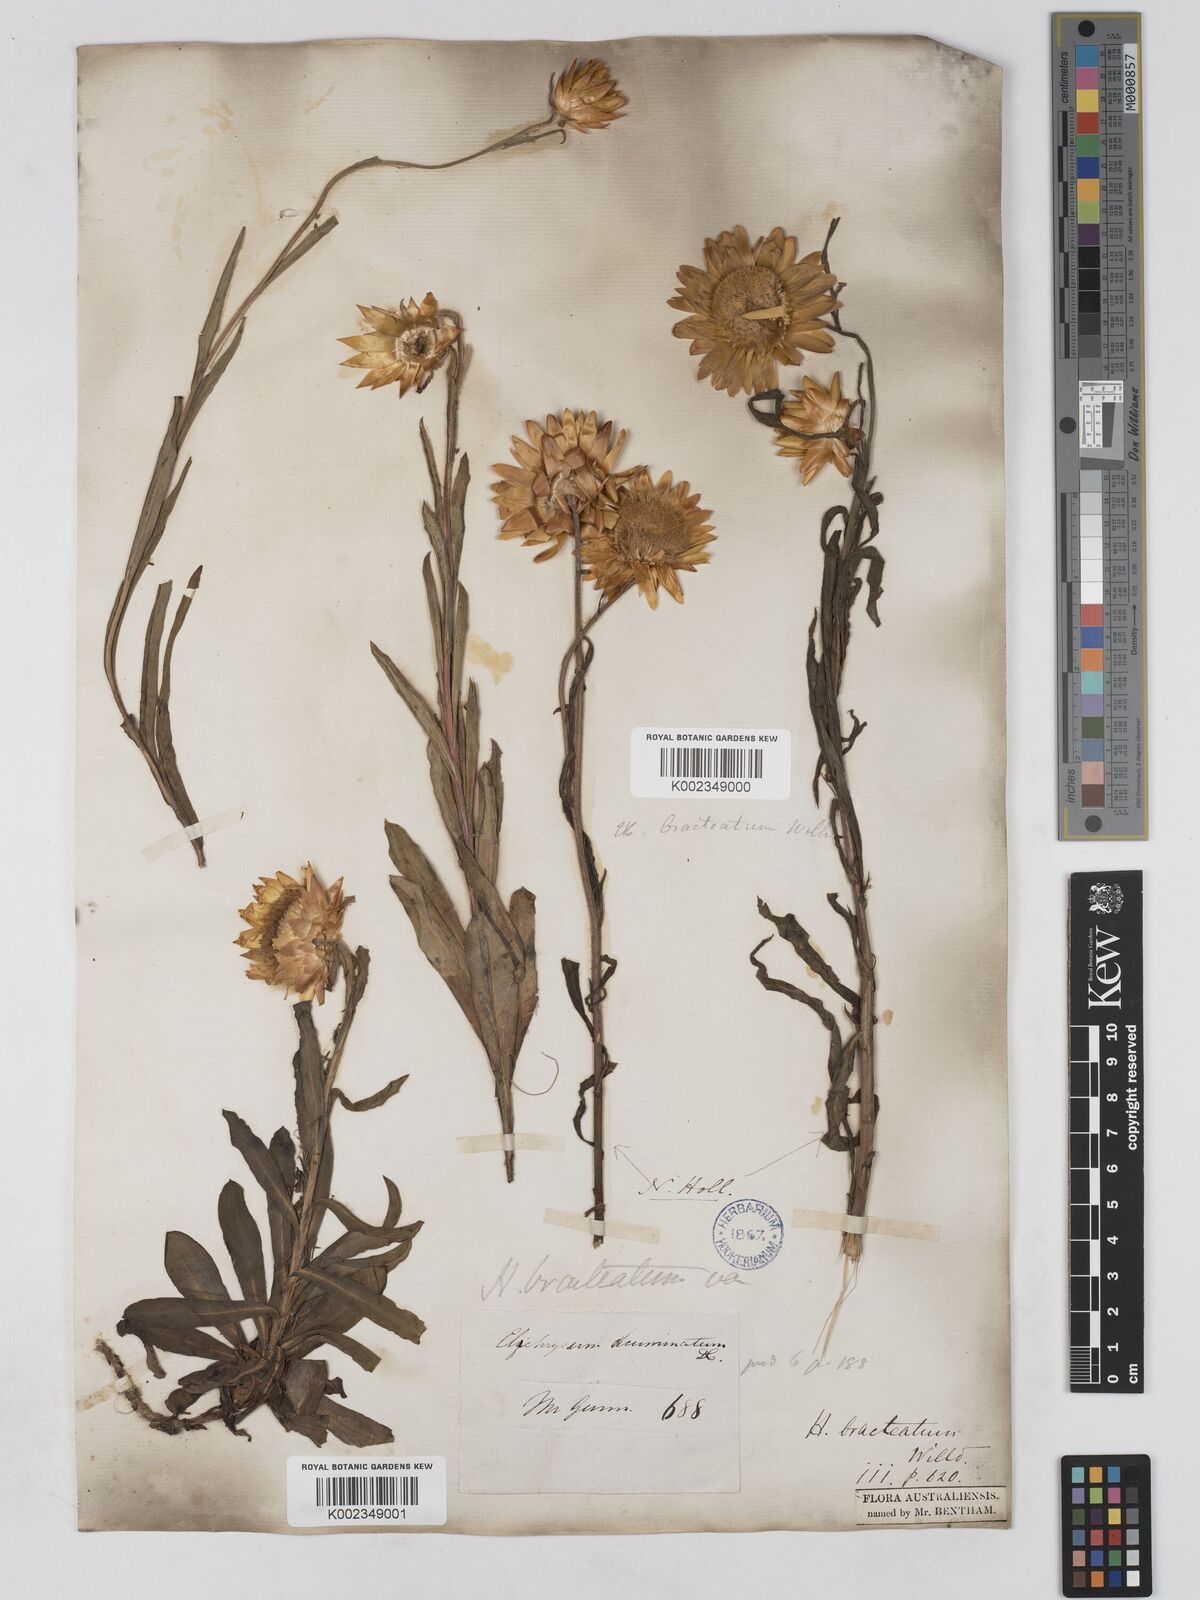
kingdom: Plantae
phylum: Tracheophyta
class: Magnoliopsida
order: Asterales
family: Asteraceae
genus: Xerochrysum
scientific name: Xerochrysum bracteatum
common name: Bracted strawflower
